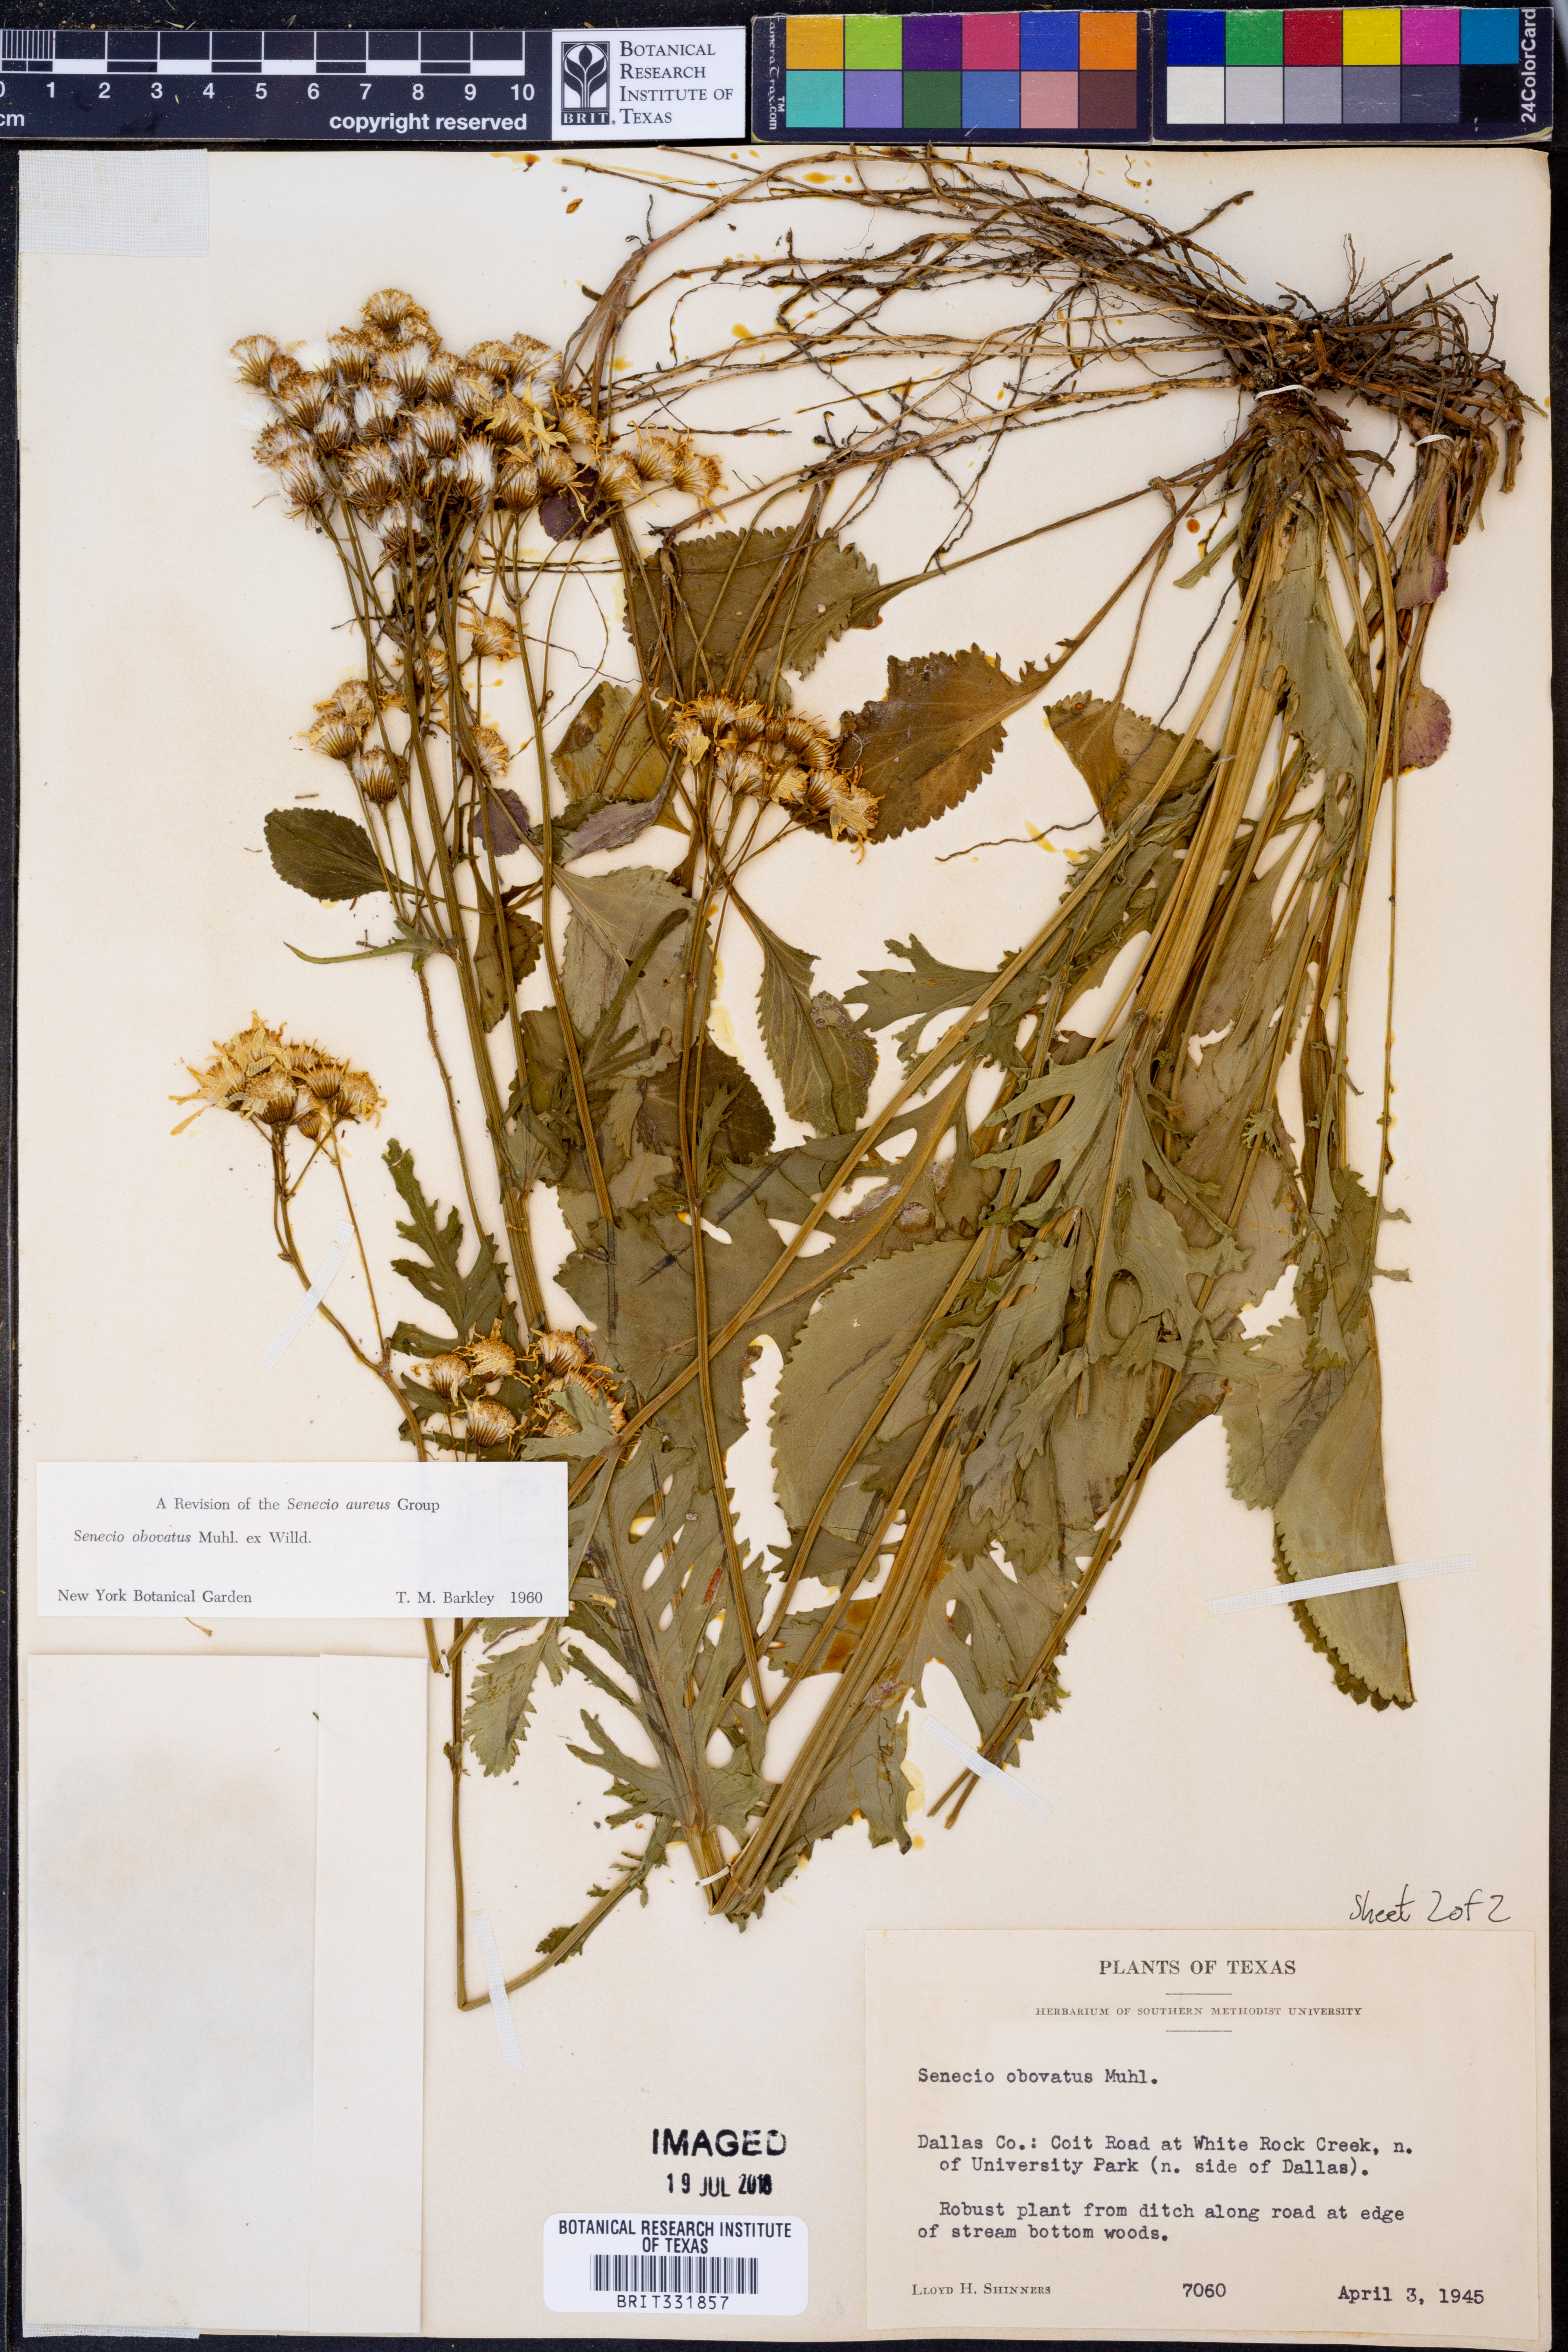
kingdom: Plantae
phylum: Tracheophyta
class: Magnoliopsida
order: Asterales
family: Asteraceae
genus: Senecio
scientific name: Senecio provincialis
